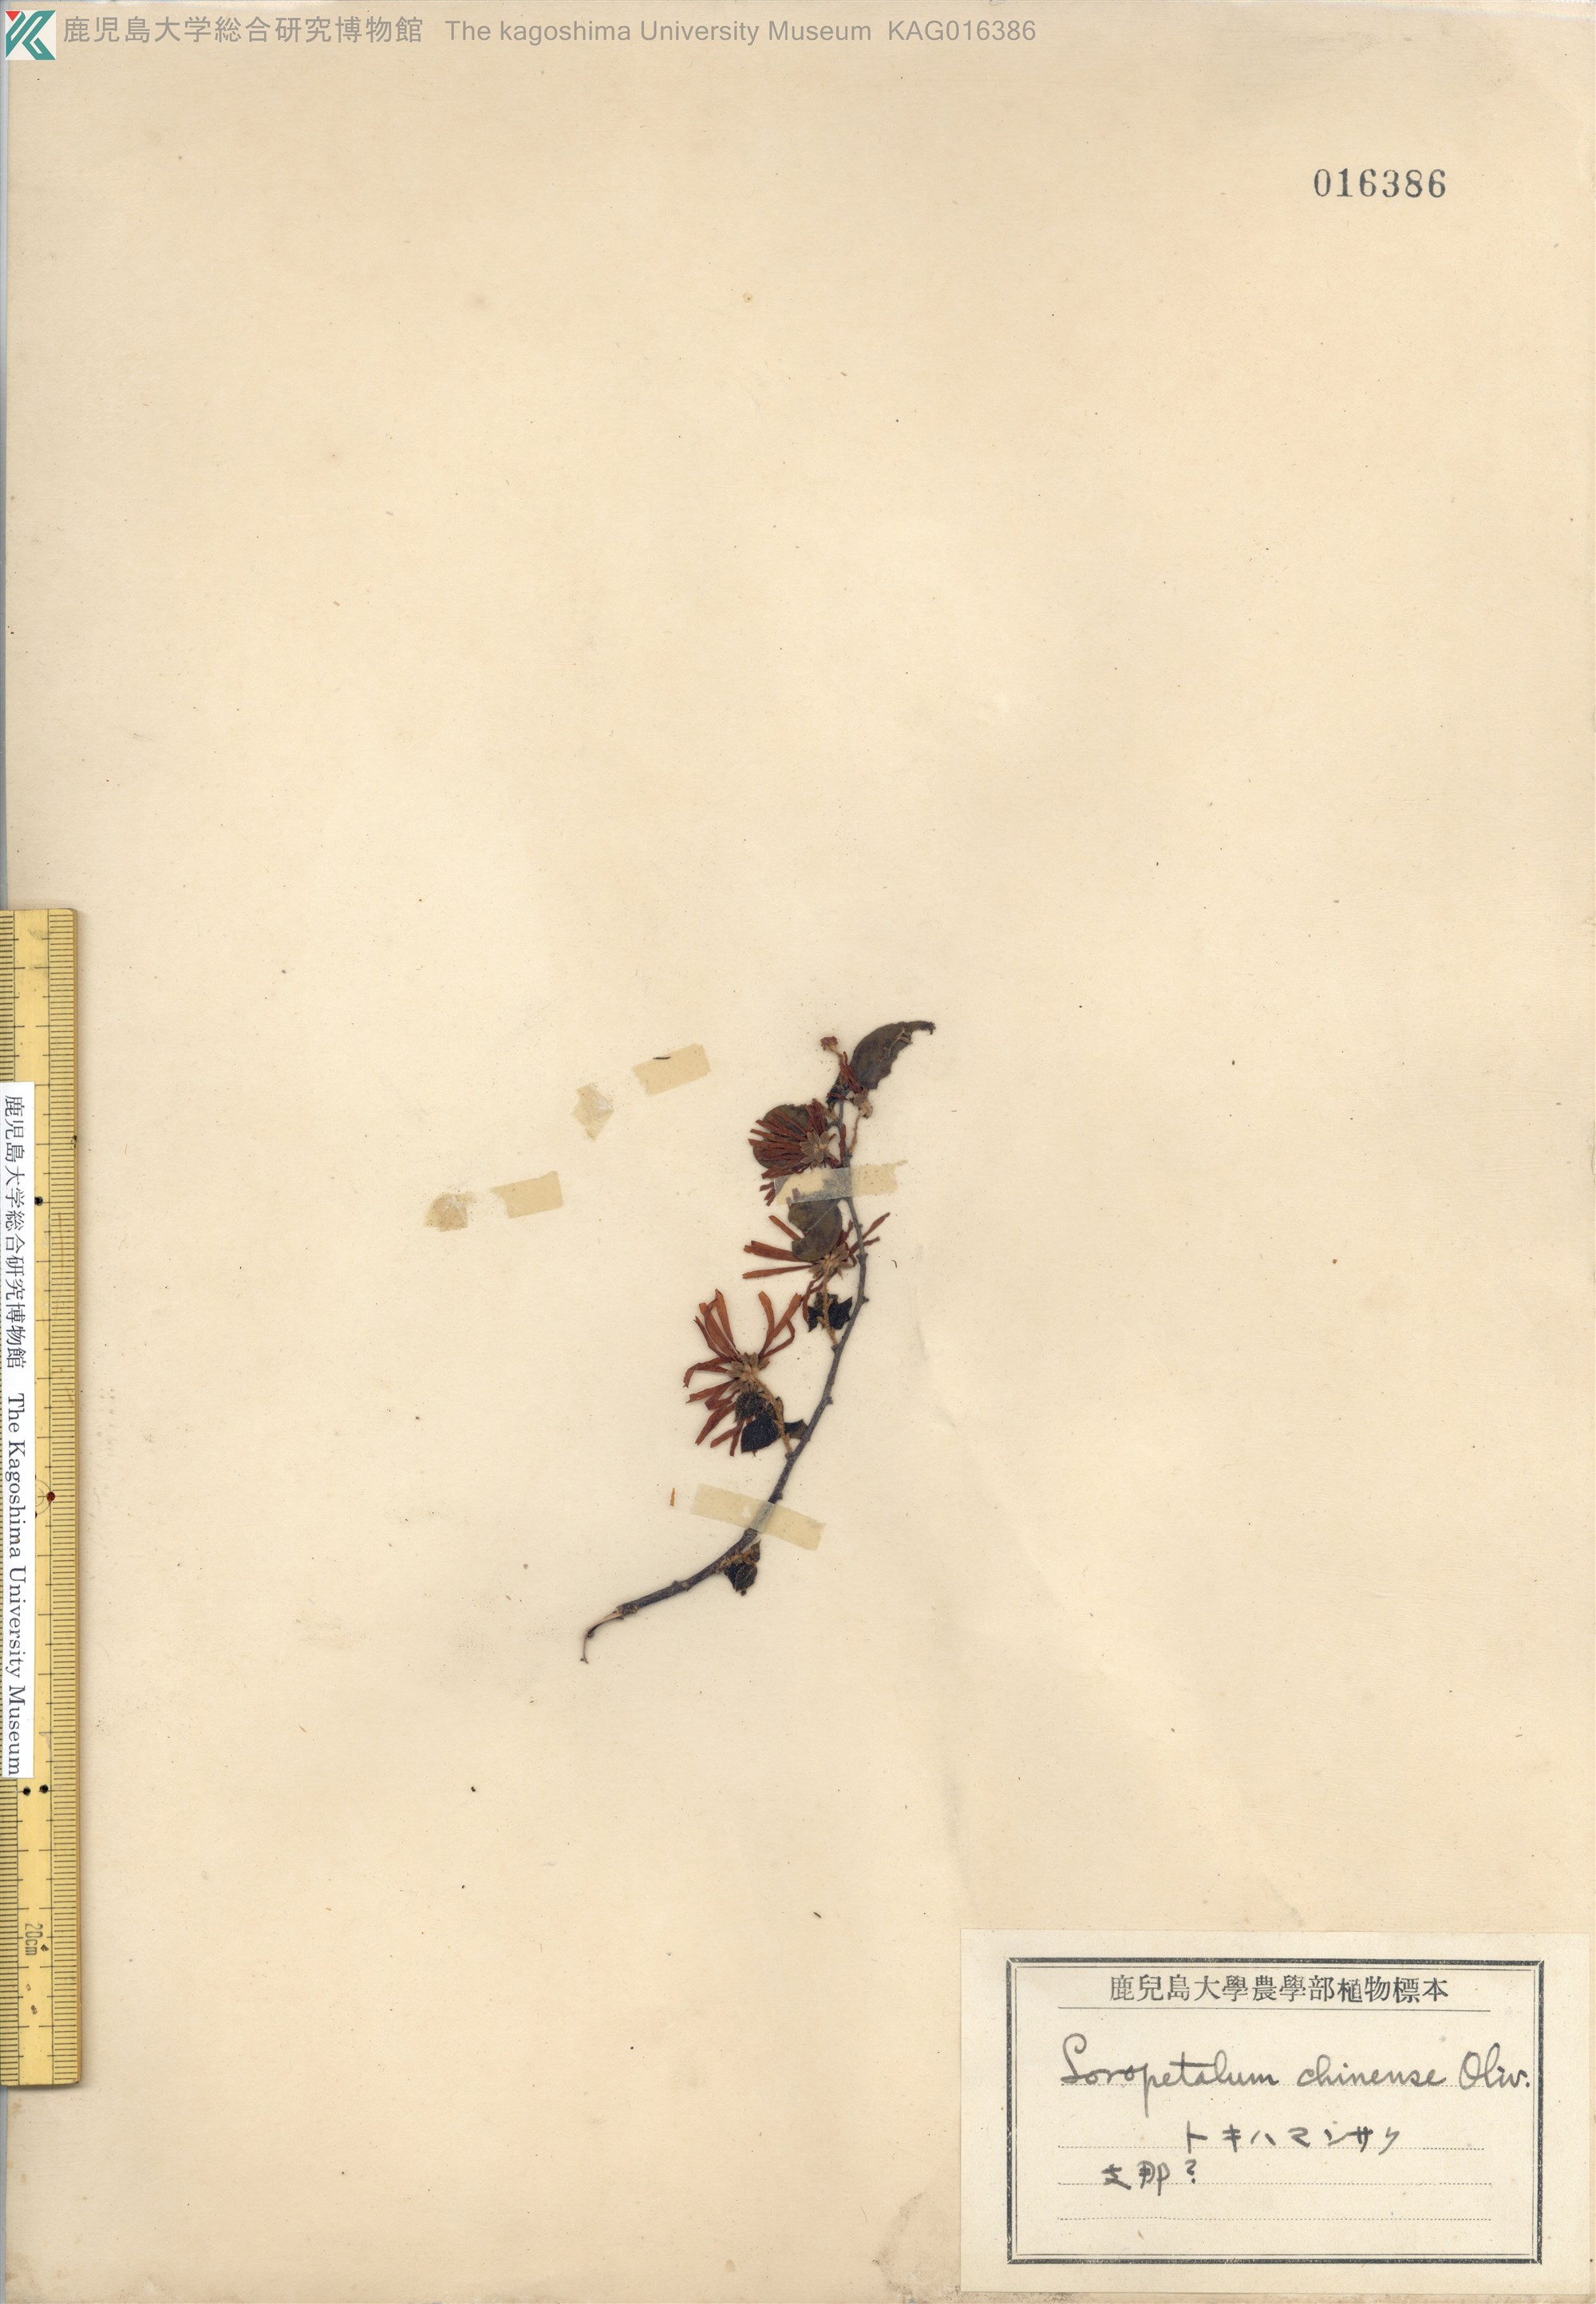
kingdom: Plantae
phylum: Tracheophyta
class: Magnoliopsida
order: Saxifragales
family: Hamamelidaceae
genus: Loropetalum
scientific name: Loropetalum chinense
